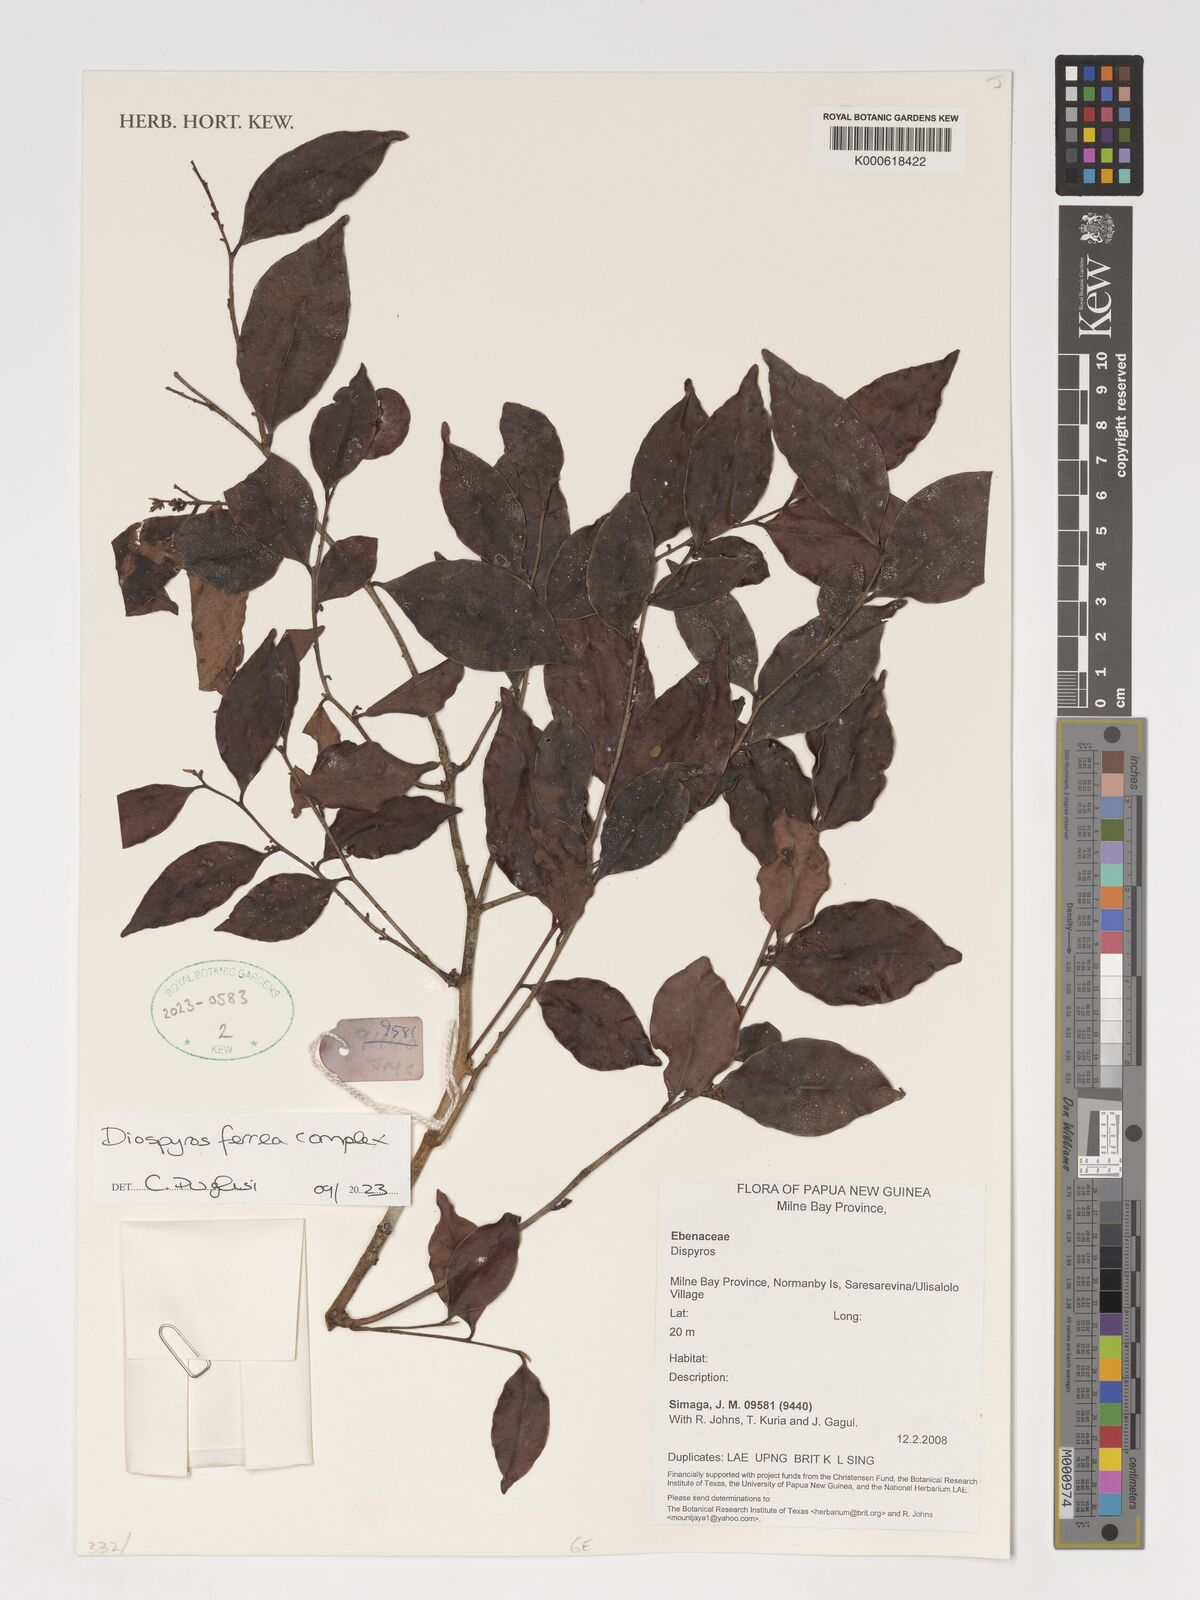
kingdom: Plantae
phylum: Tracheophyta
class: Magnoliopsida
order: Ericales
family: Ebenaceae
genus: Diospyros
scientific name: Diospyros ferrea
